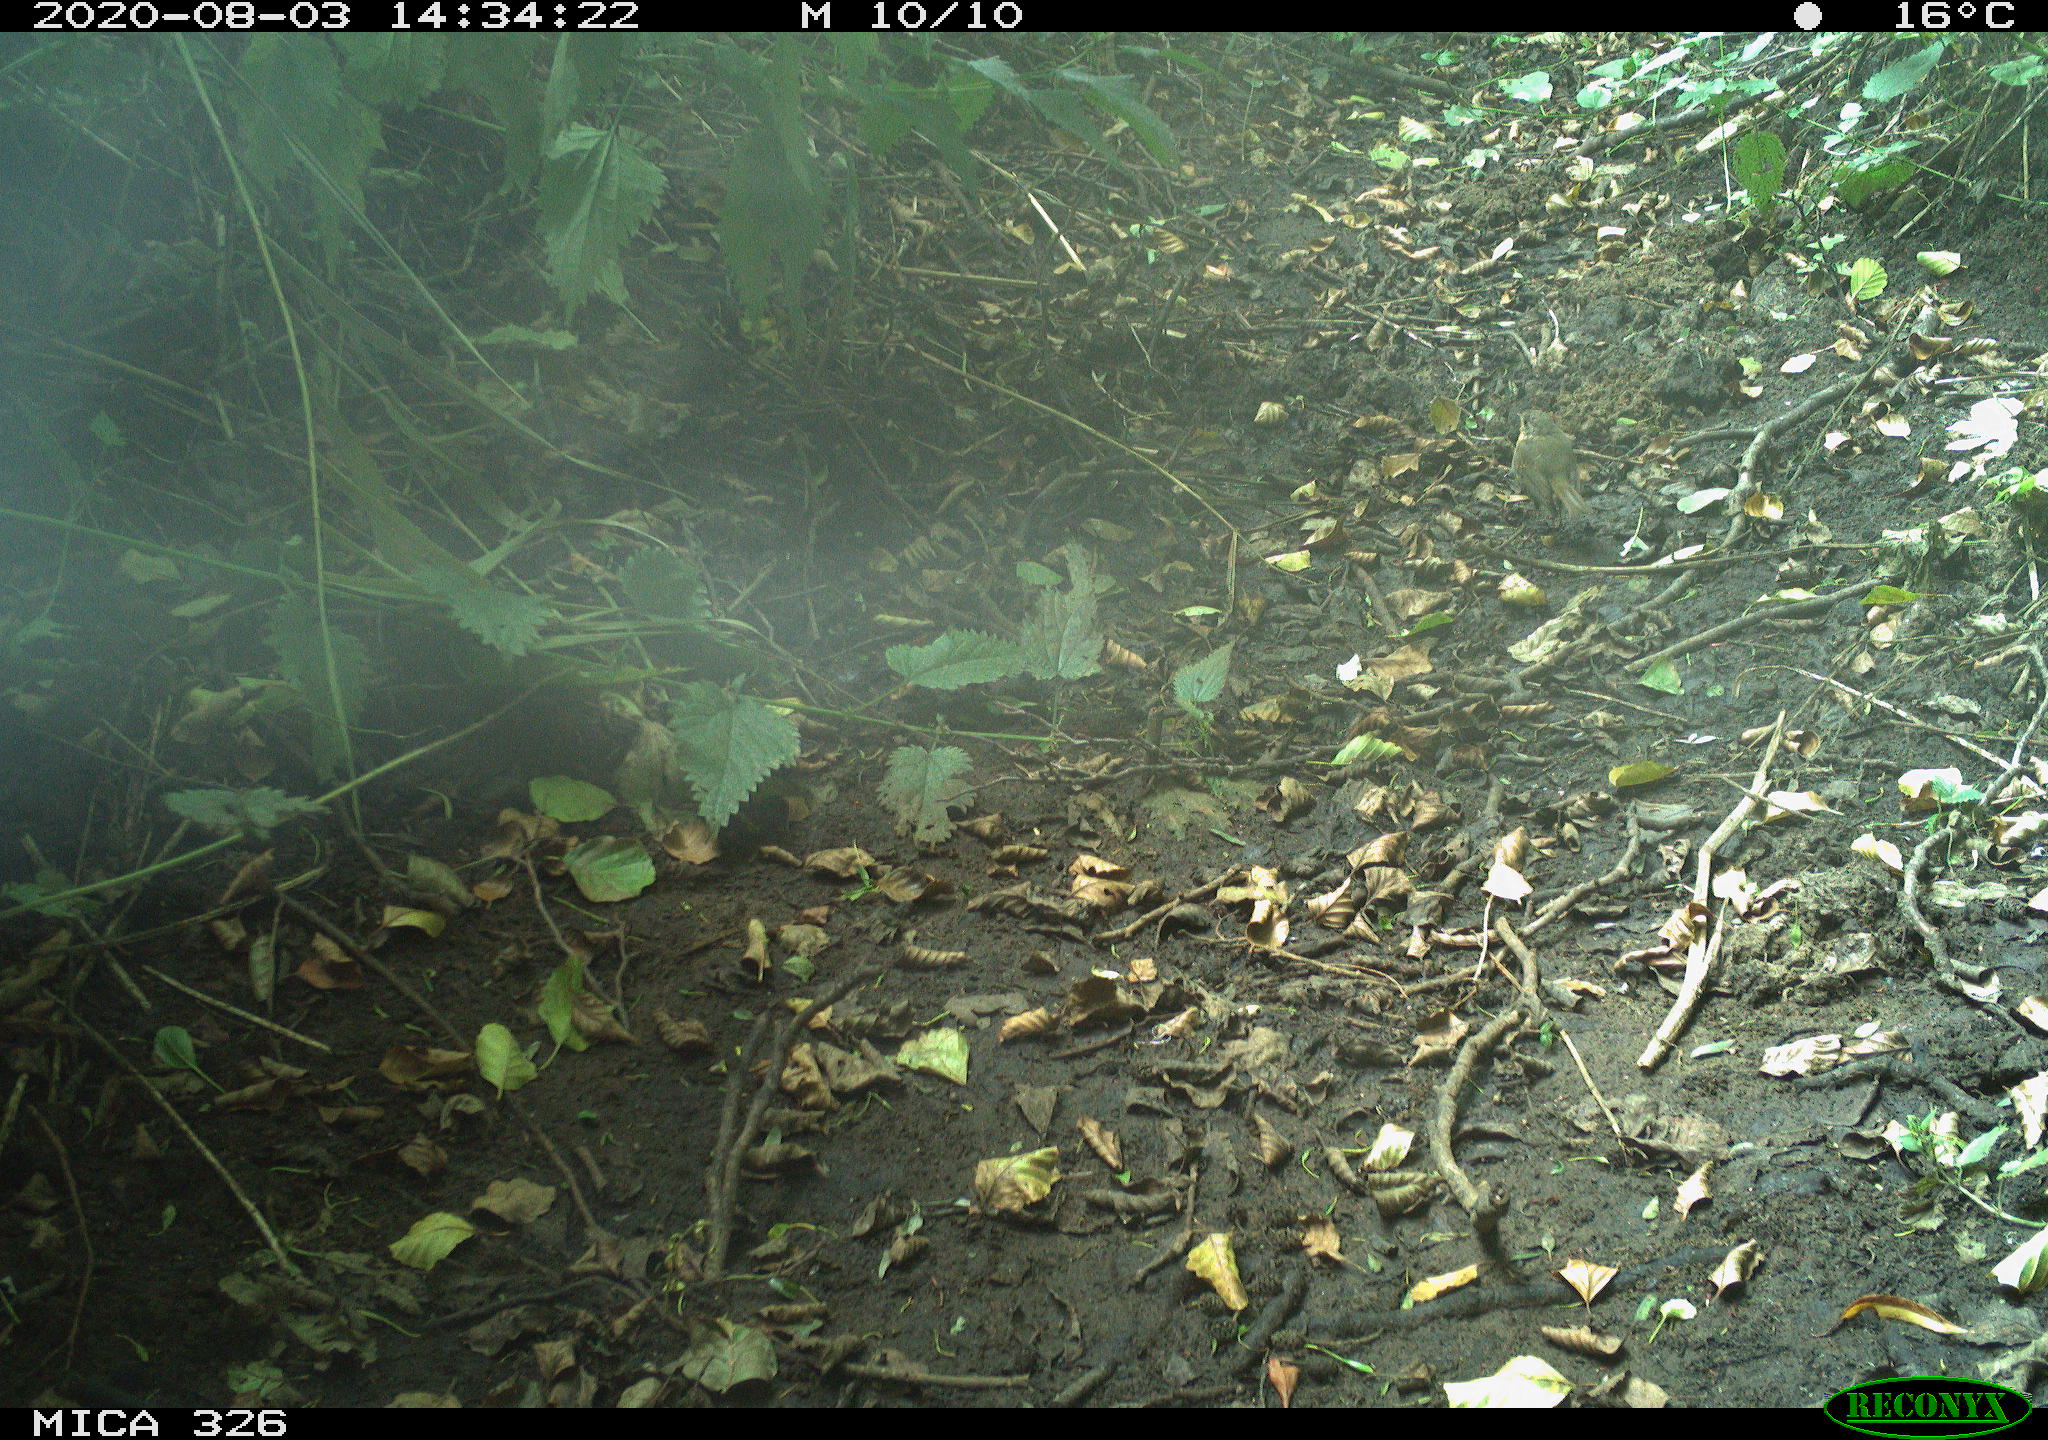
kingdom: Animalia
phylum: Chordata
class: Aves
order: Passeriformes
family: Muscicapidae
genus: Erithacus
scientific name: Erithacus rubecula
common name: European robin
